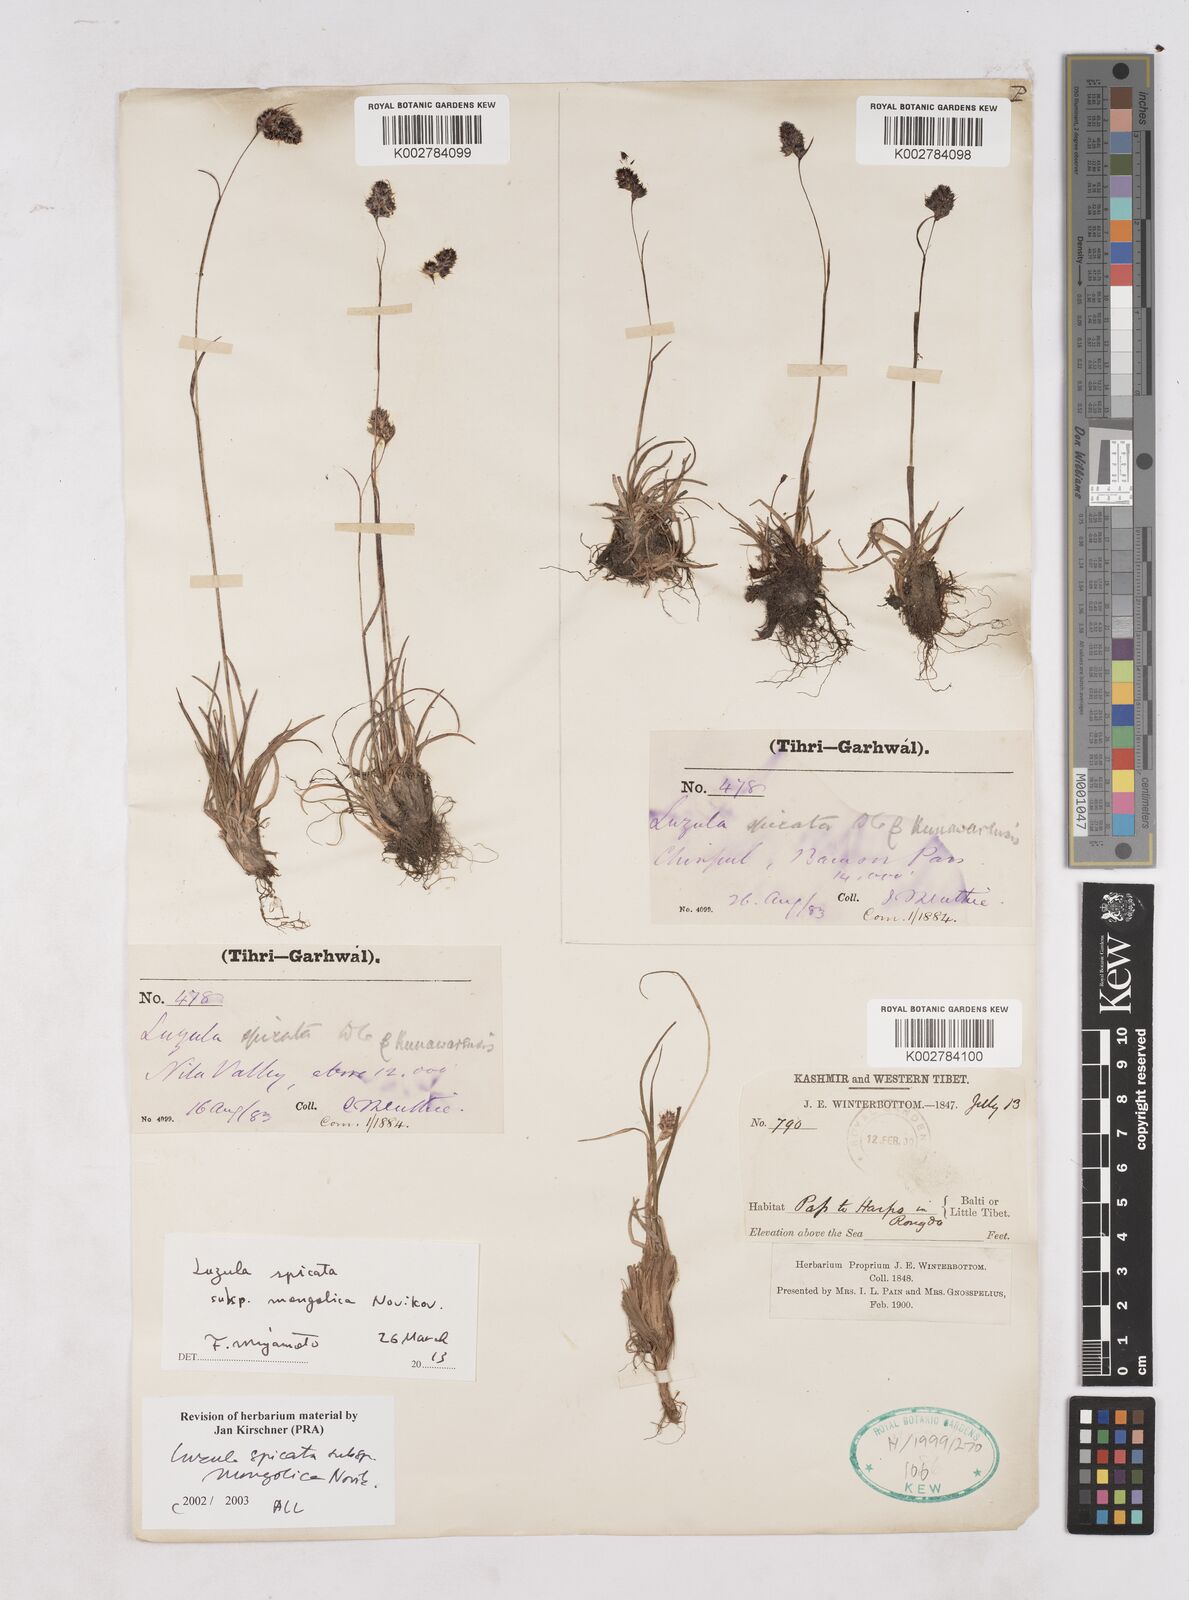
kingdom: Plantae
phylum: Tracheophyta
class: Liliopsida
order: Poales
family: Juncaceae
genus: Luzula
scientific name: Luzula spicata
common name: Spiked wood-rush
